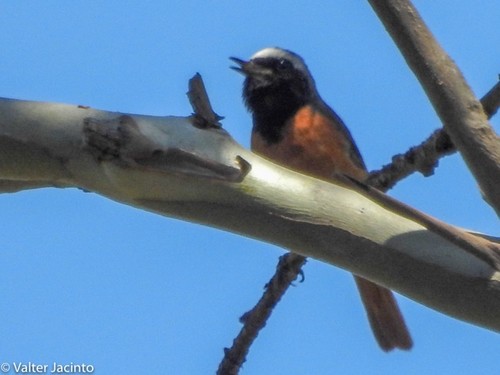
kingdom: Animalia
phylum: Chordata
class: Aves
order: Passeriformes
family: Muscicapidae
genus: Phoenicurus
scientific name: Phoenicurus phoenicurus
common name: Common redstart
